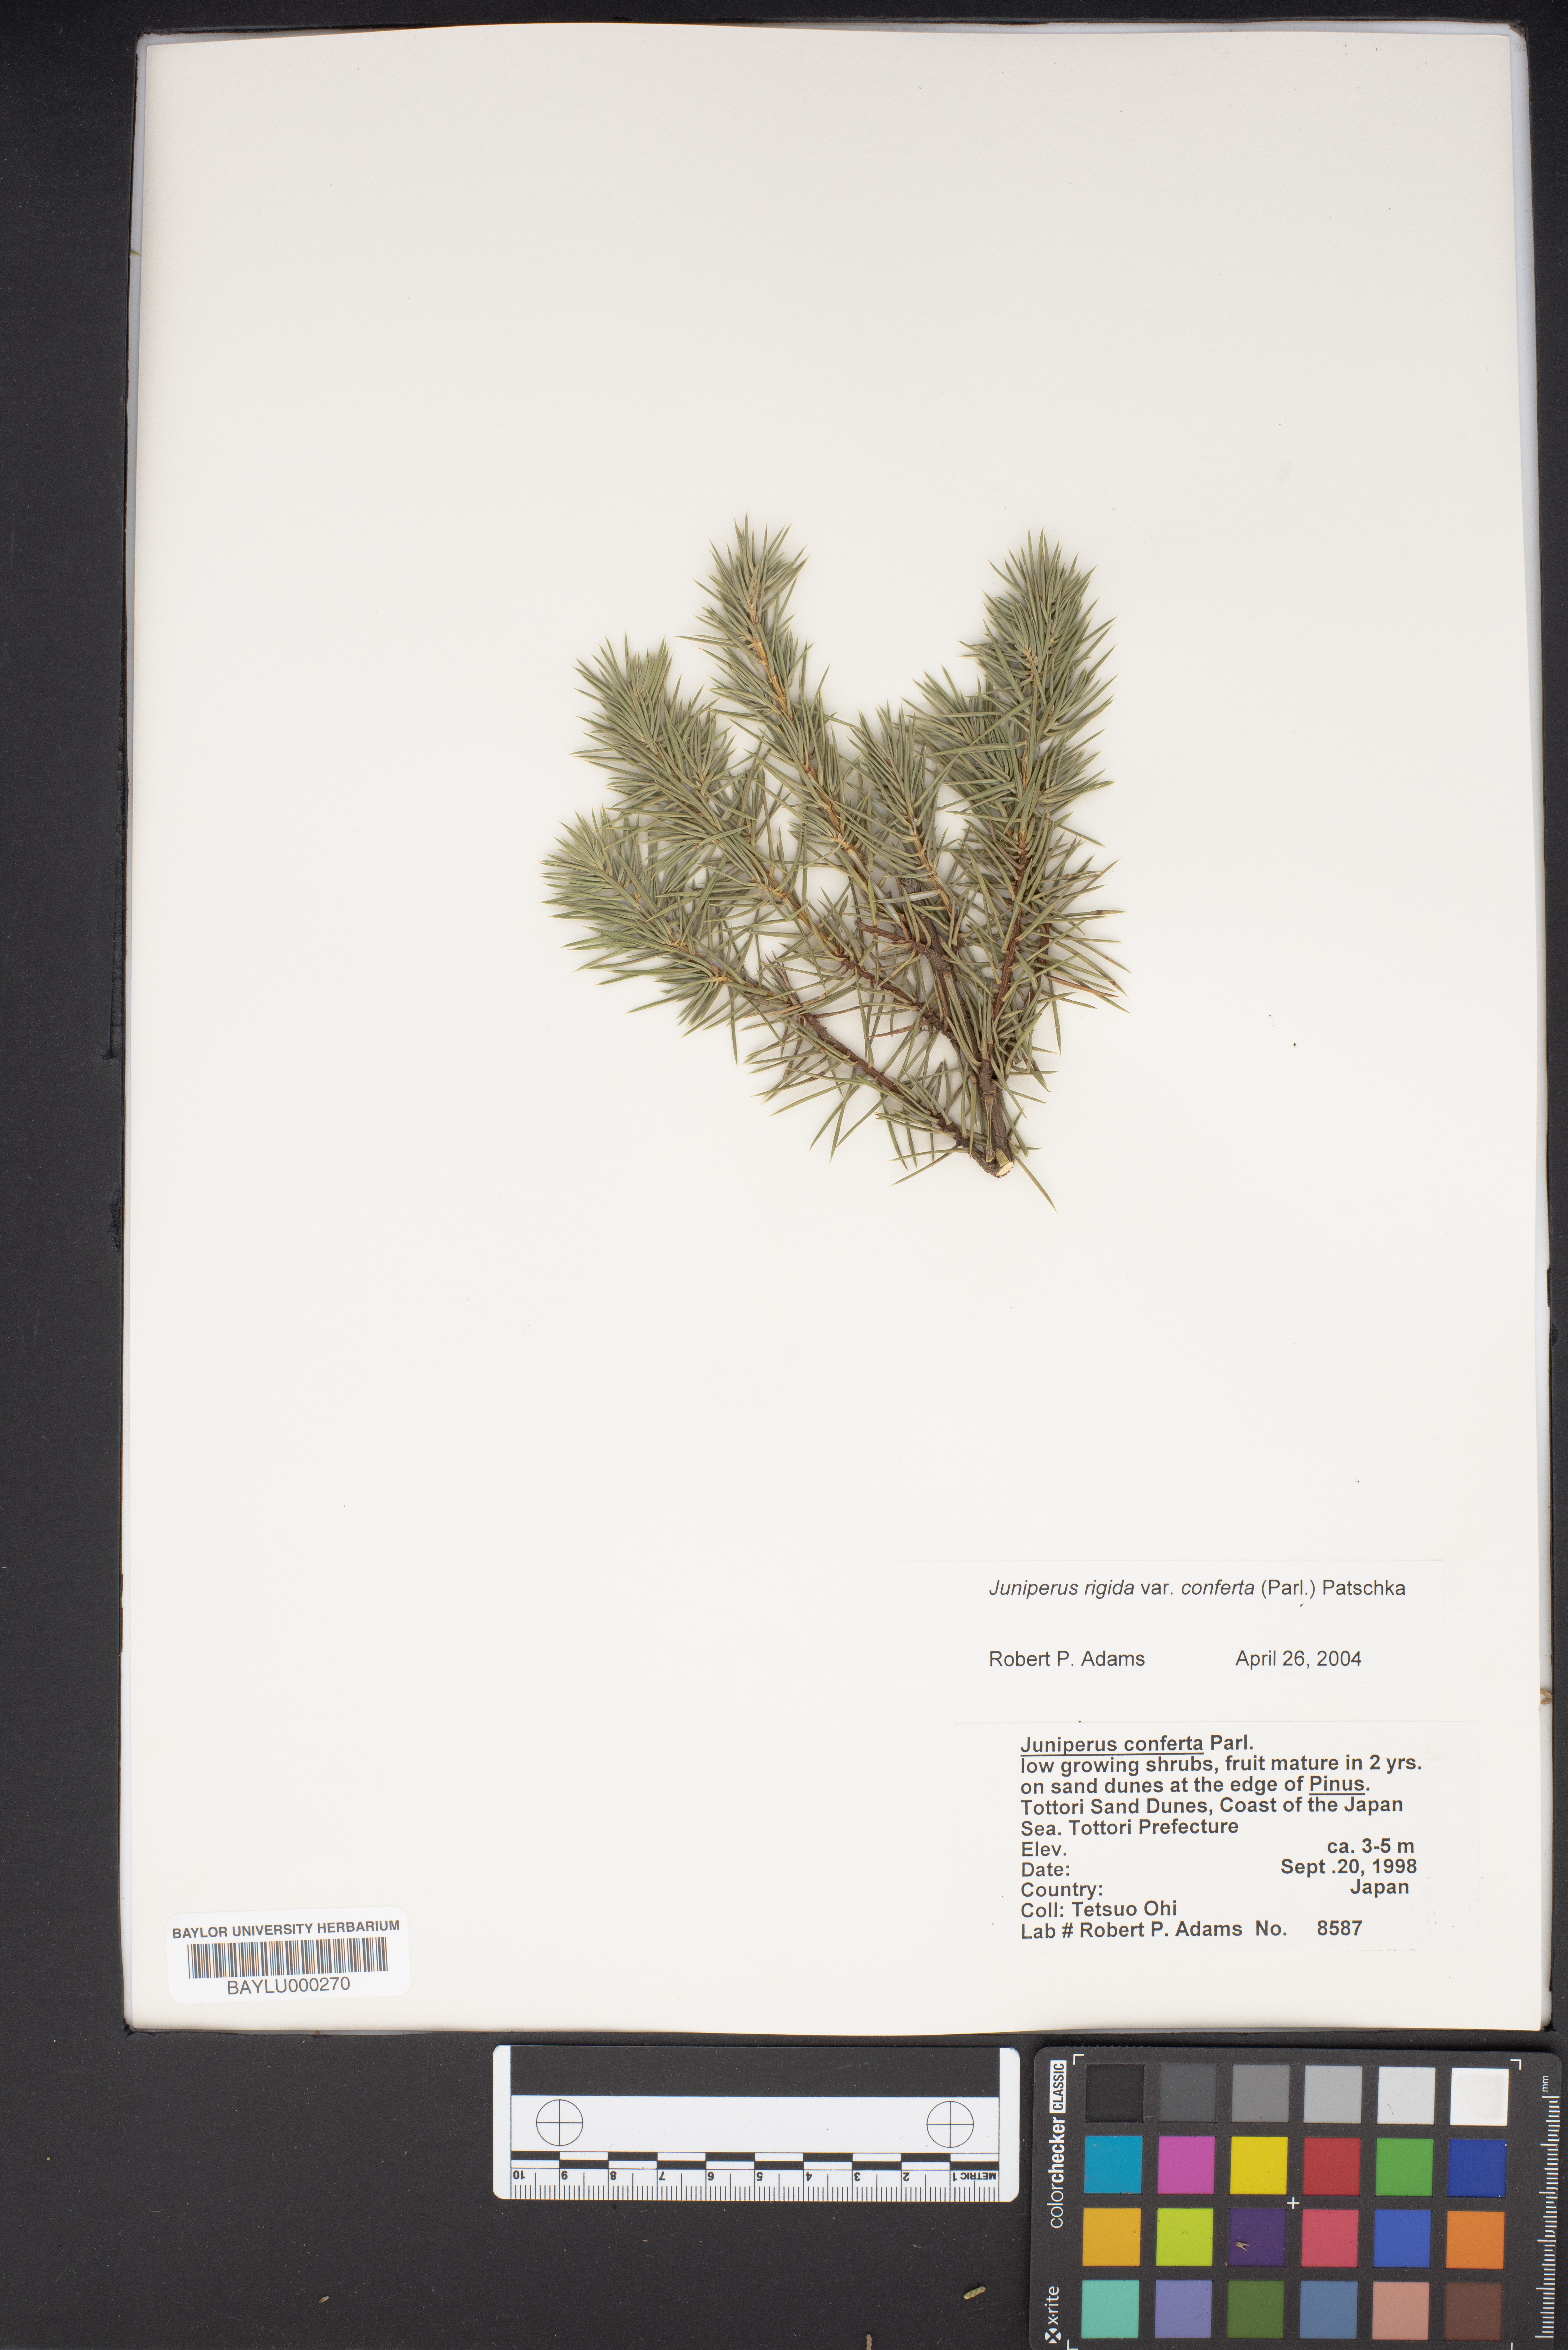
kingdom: Plantae
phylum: Tracheophyta
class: Pinopsida
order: Pinales
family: Cupressaceae
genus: Juniperus
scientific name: Juniperus rigida
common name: Needle juniper
